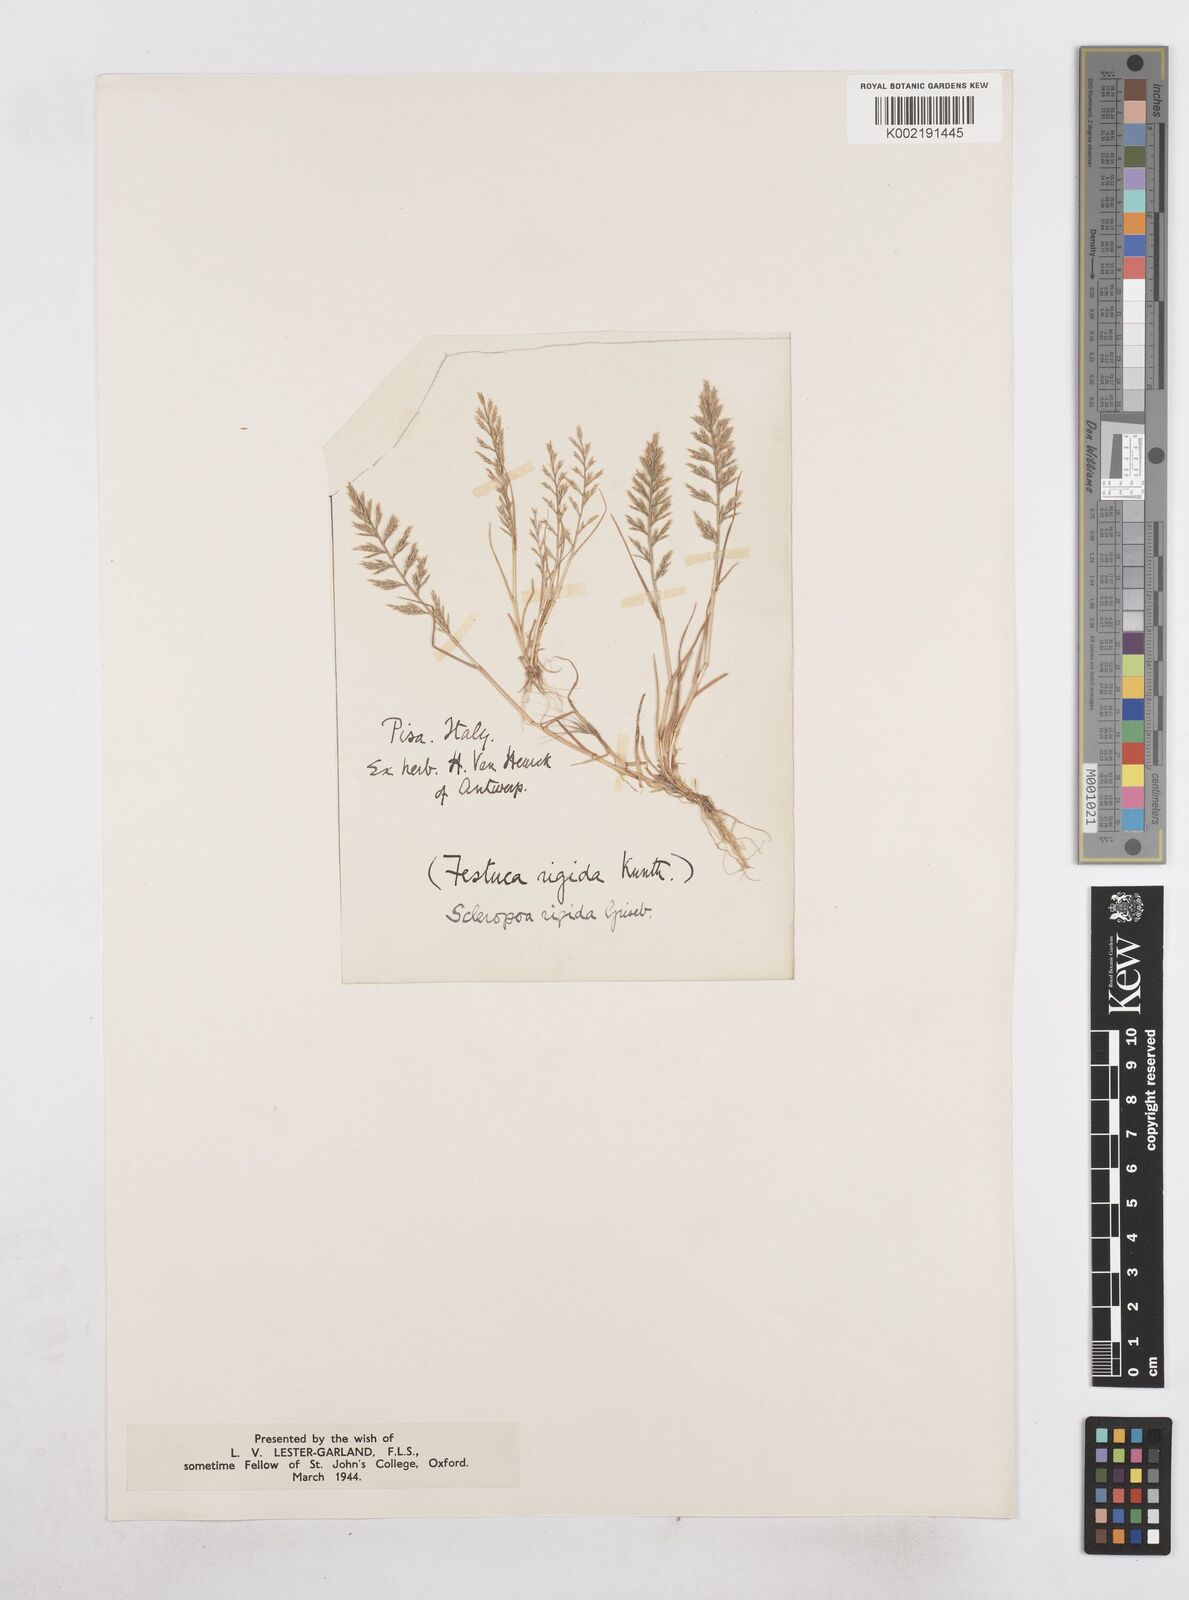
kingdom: Plantae
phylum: Tracheophyta
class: Liliopsida
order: Poales
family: Poaceae
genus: Catapodium
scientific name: Catapodium rigidum
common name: Fern-grass
